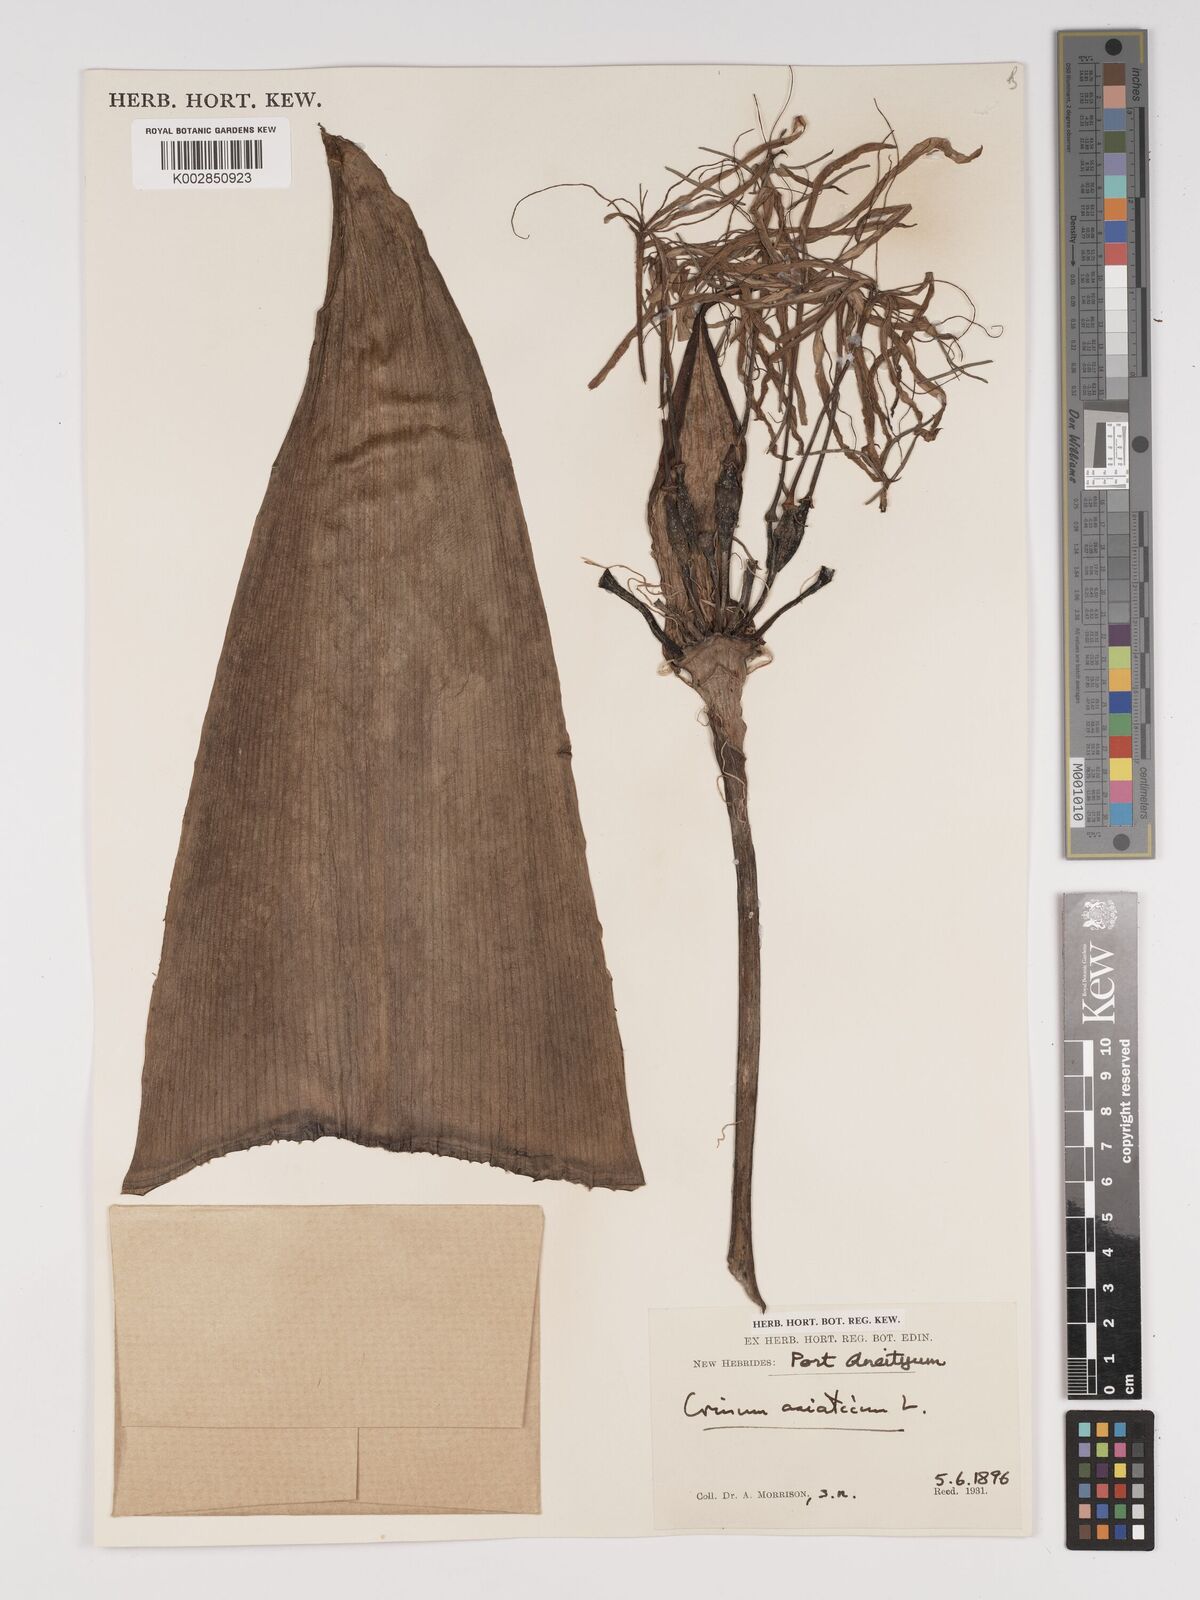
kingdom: Plantae
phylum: Tracheophyta
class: Liliopsida
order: Asparagales
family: Amaryllidaceae
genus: Crinum
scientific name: Crinum asiaticum
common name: Poisonbulb
